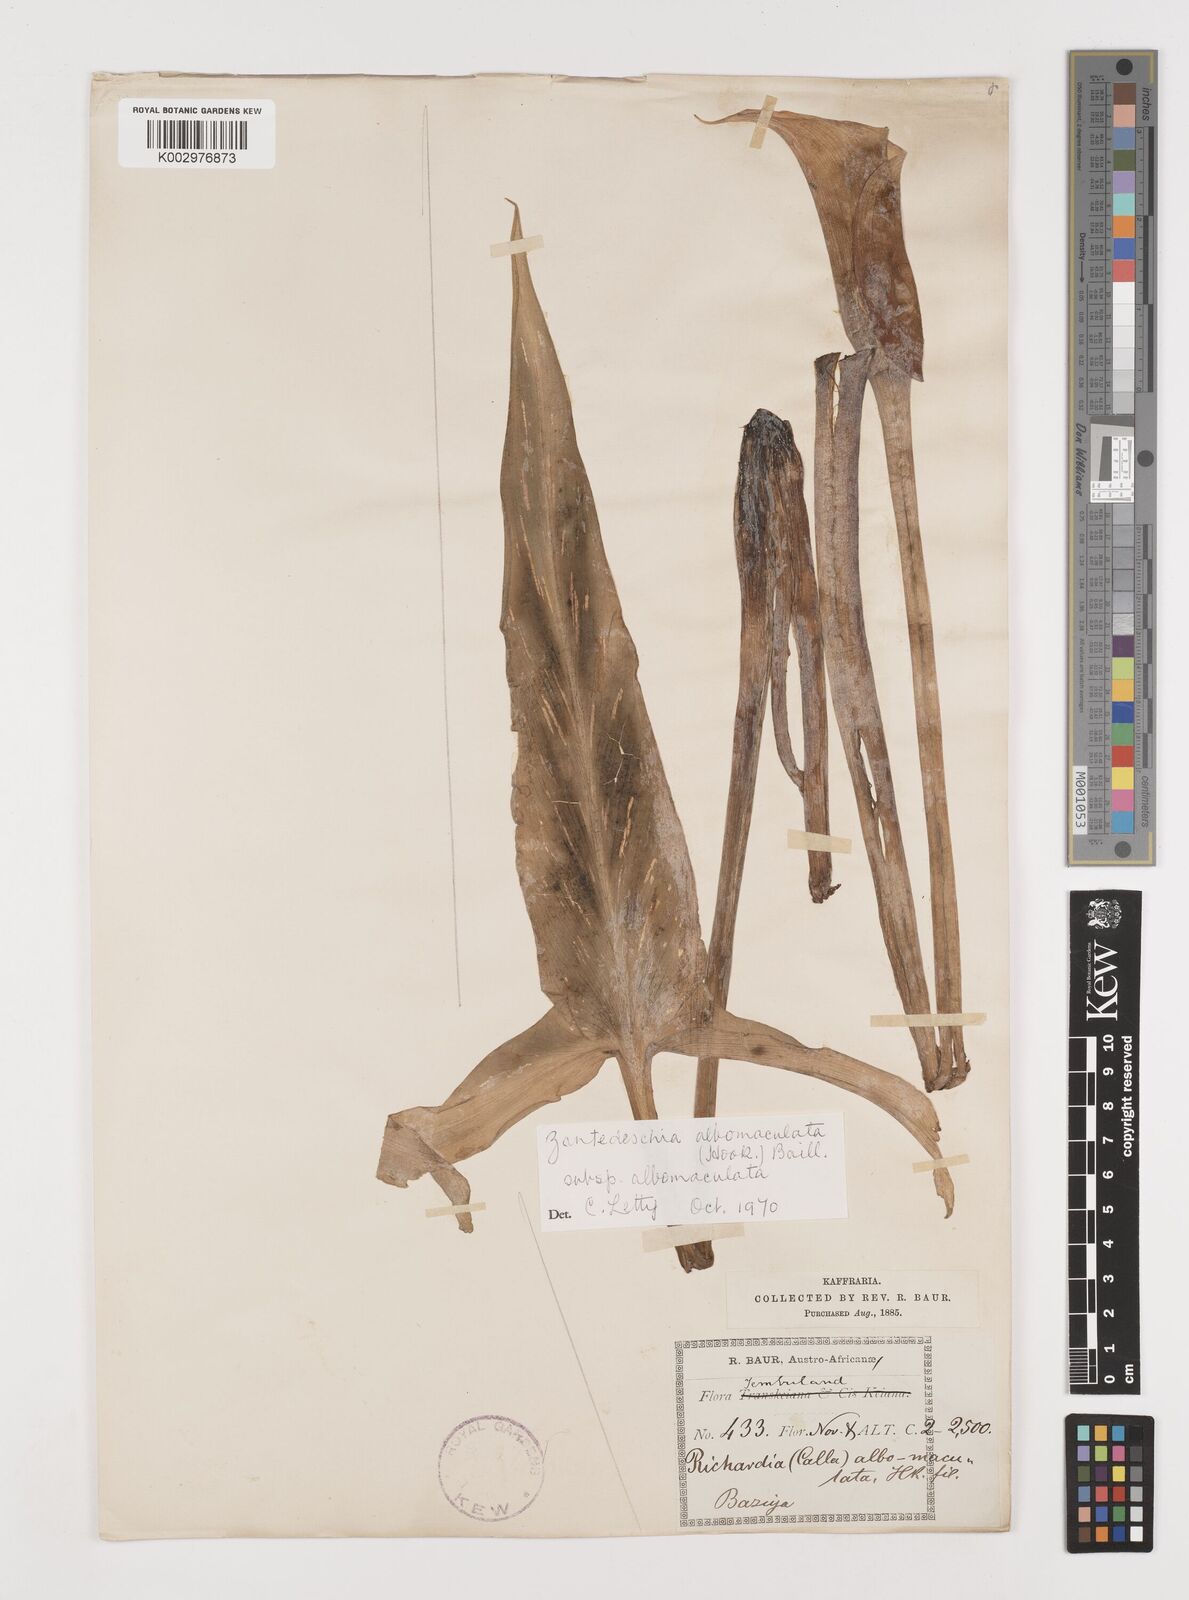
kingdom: Plantae
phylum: Tracheophyta
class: Liliopsida
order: Alismatales
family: Araceae
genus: Zantedeschia
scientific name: Zantedeschia albomaculata
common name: Spotted calla lily
